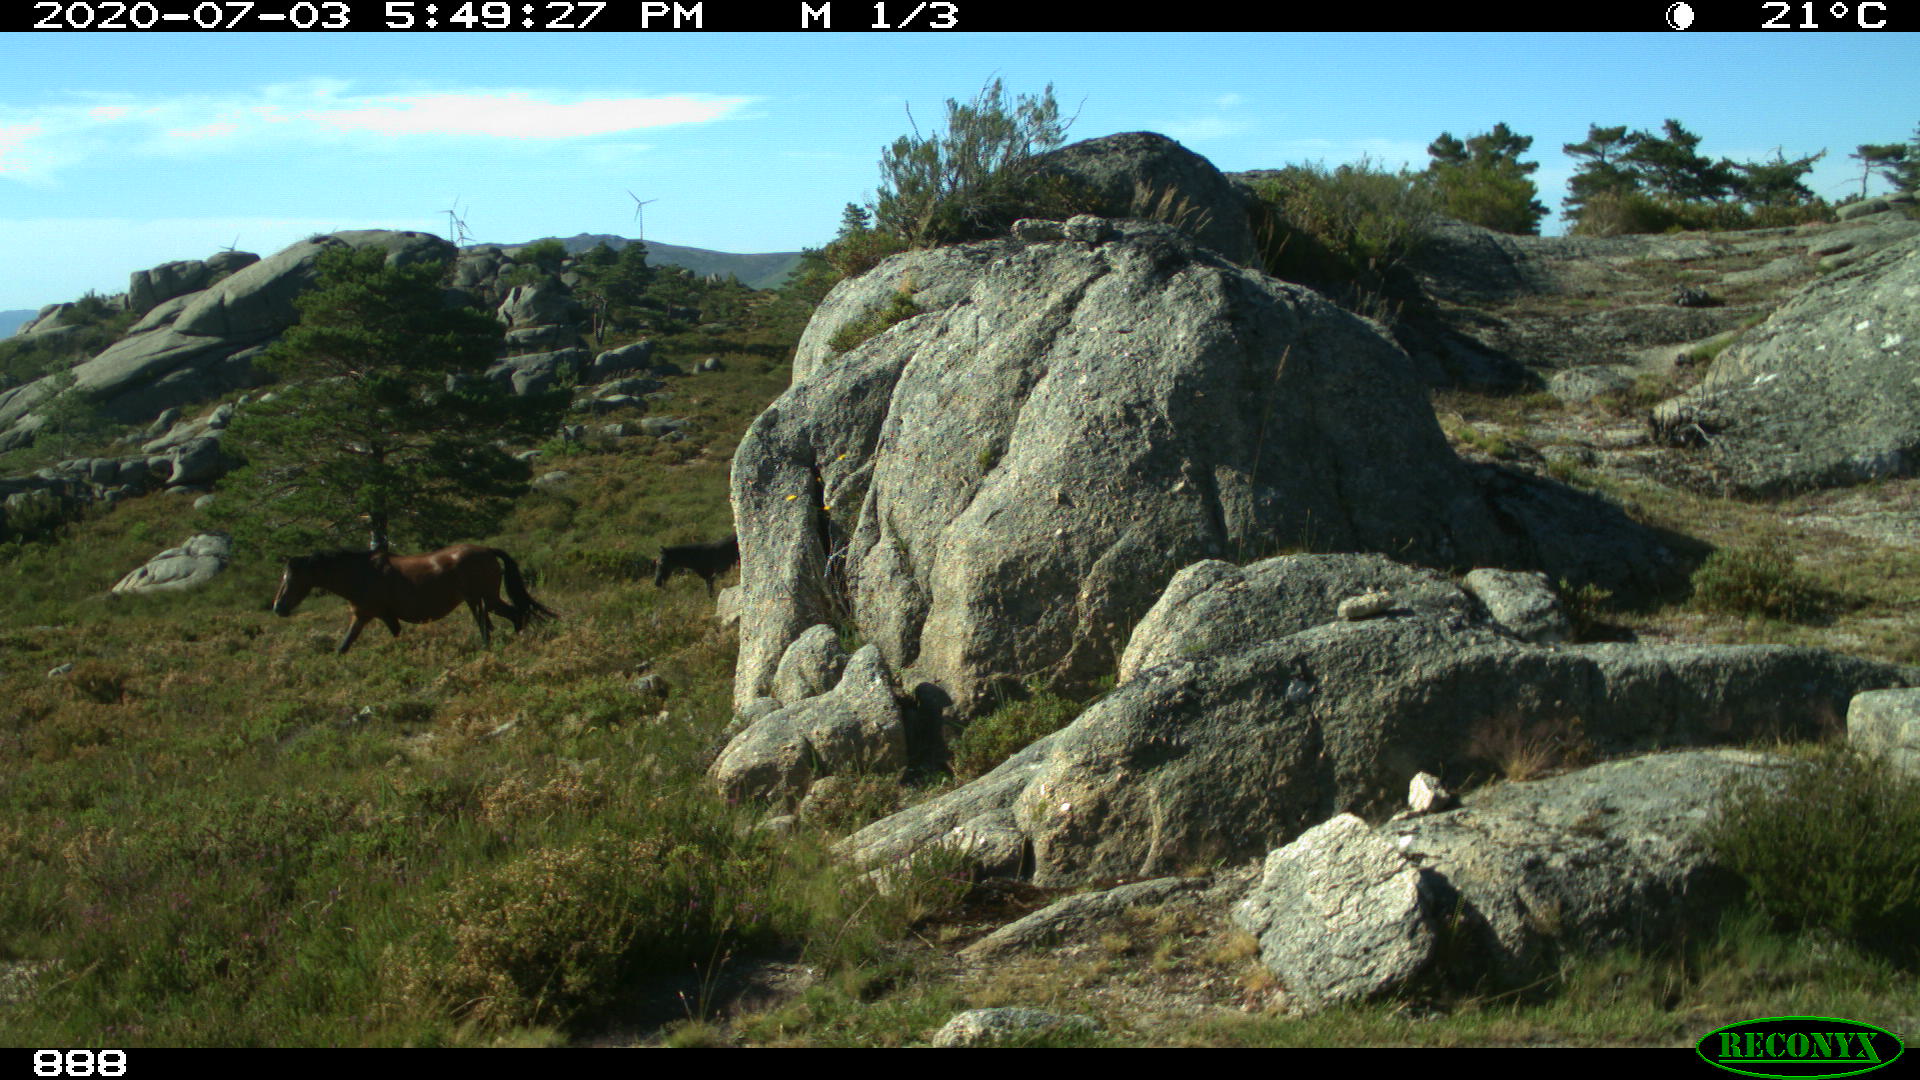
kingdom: Animalia
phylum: Chordata
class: Mammalia
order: Perissodactyla
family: Equidae
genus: Equus
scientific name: Equus caballus
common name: Horse
